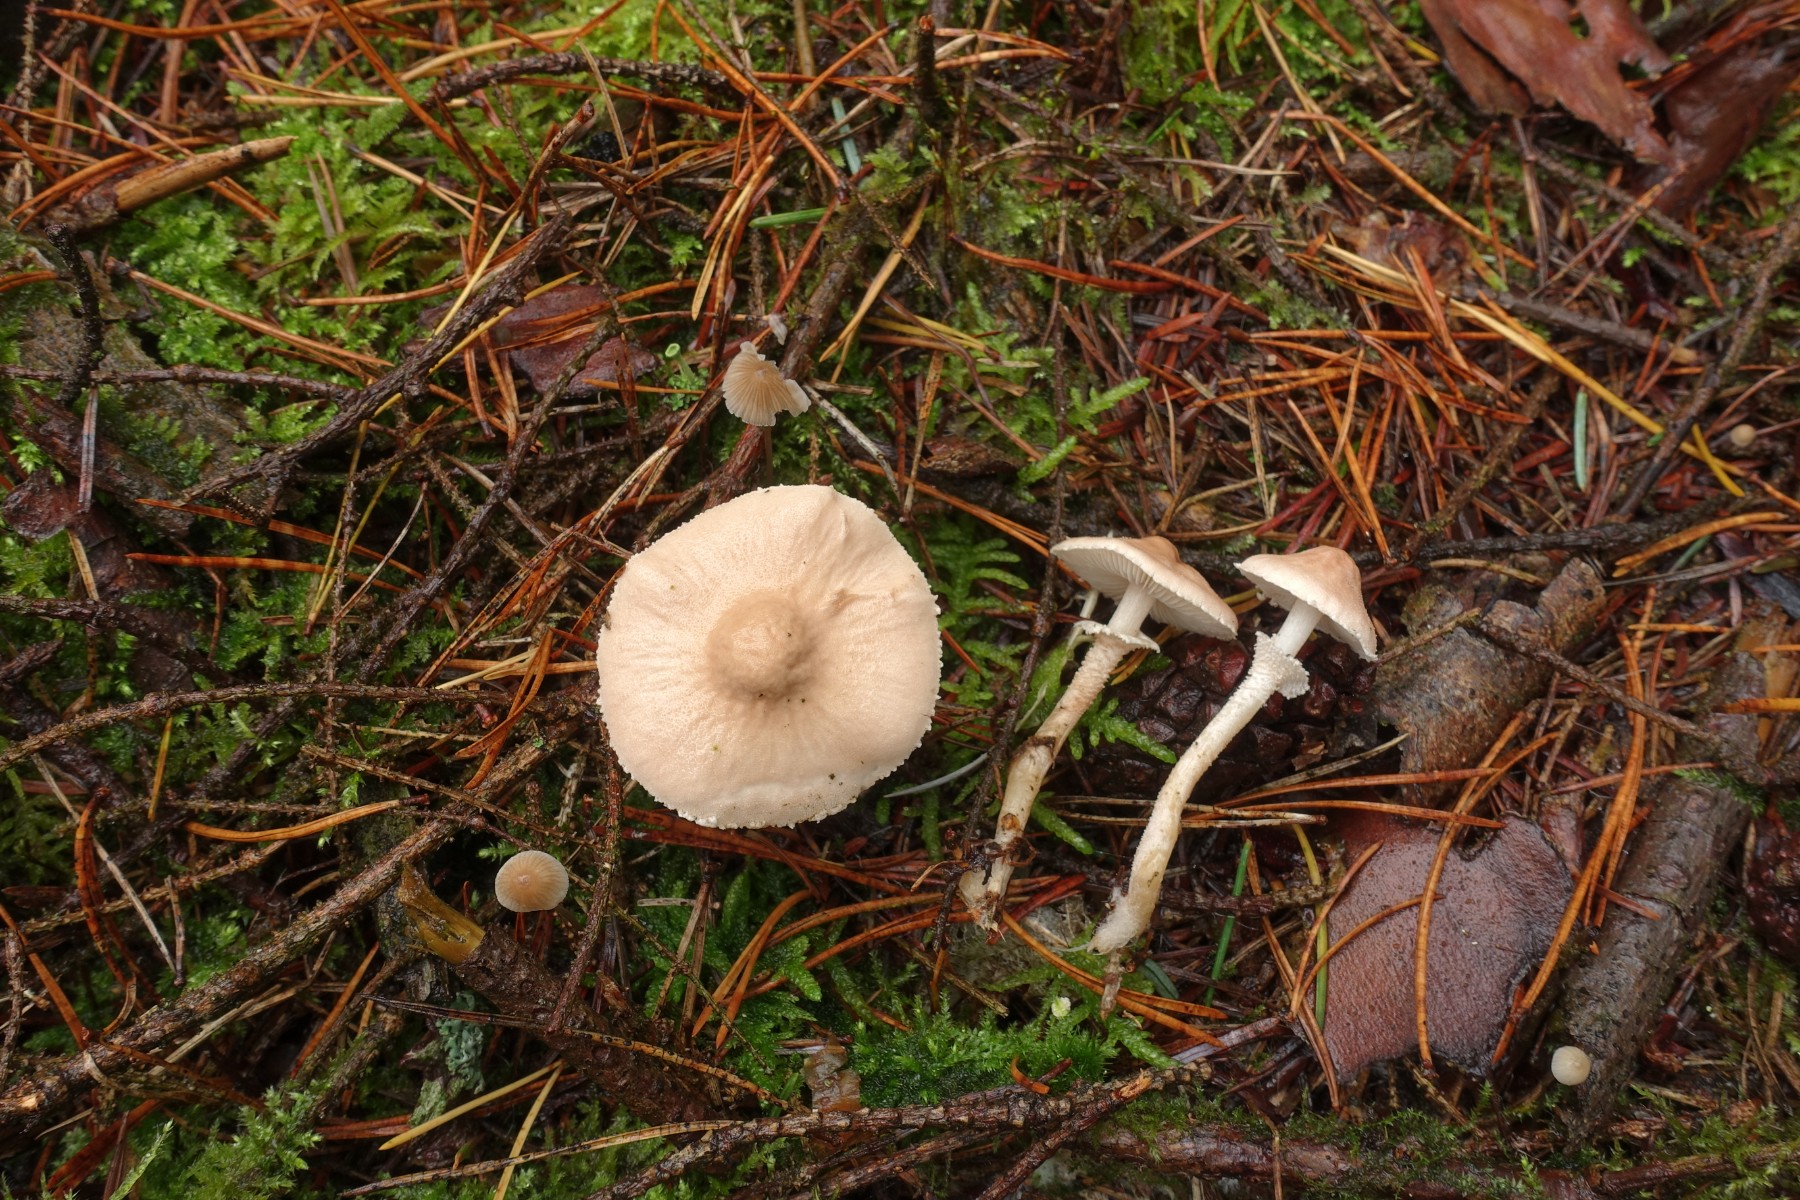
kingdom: Fungi
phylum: Basidiomycota
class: Agaricomycetes
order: Agaricales
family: Tricholomataceae
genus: Cystoderma
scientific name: Cystoderma carcharias
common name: rødgrå grynhat
